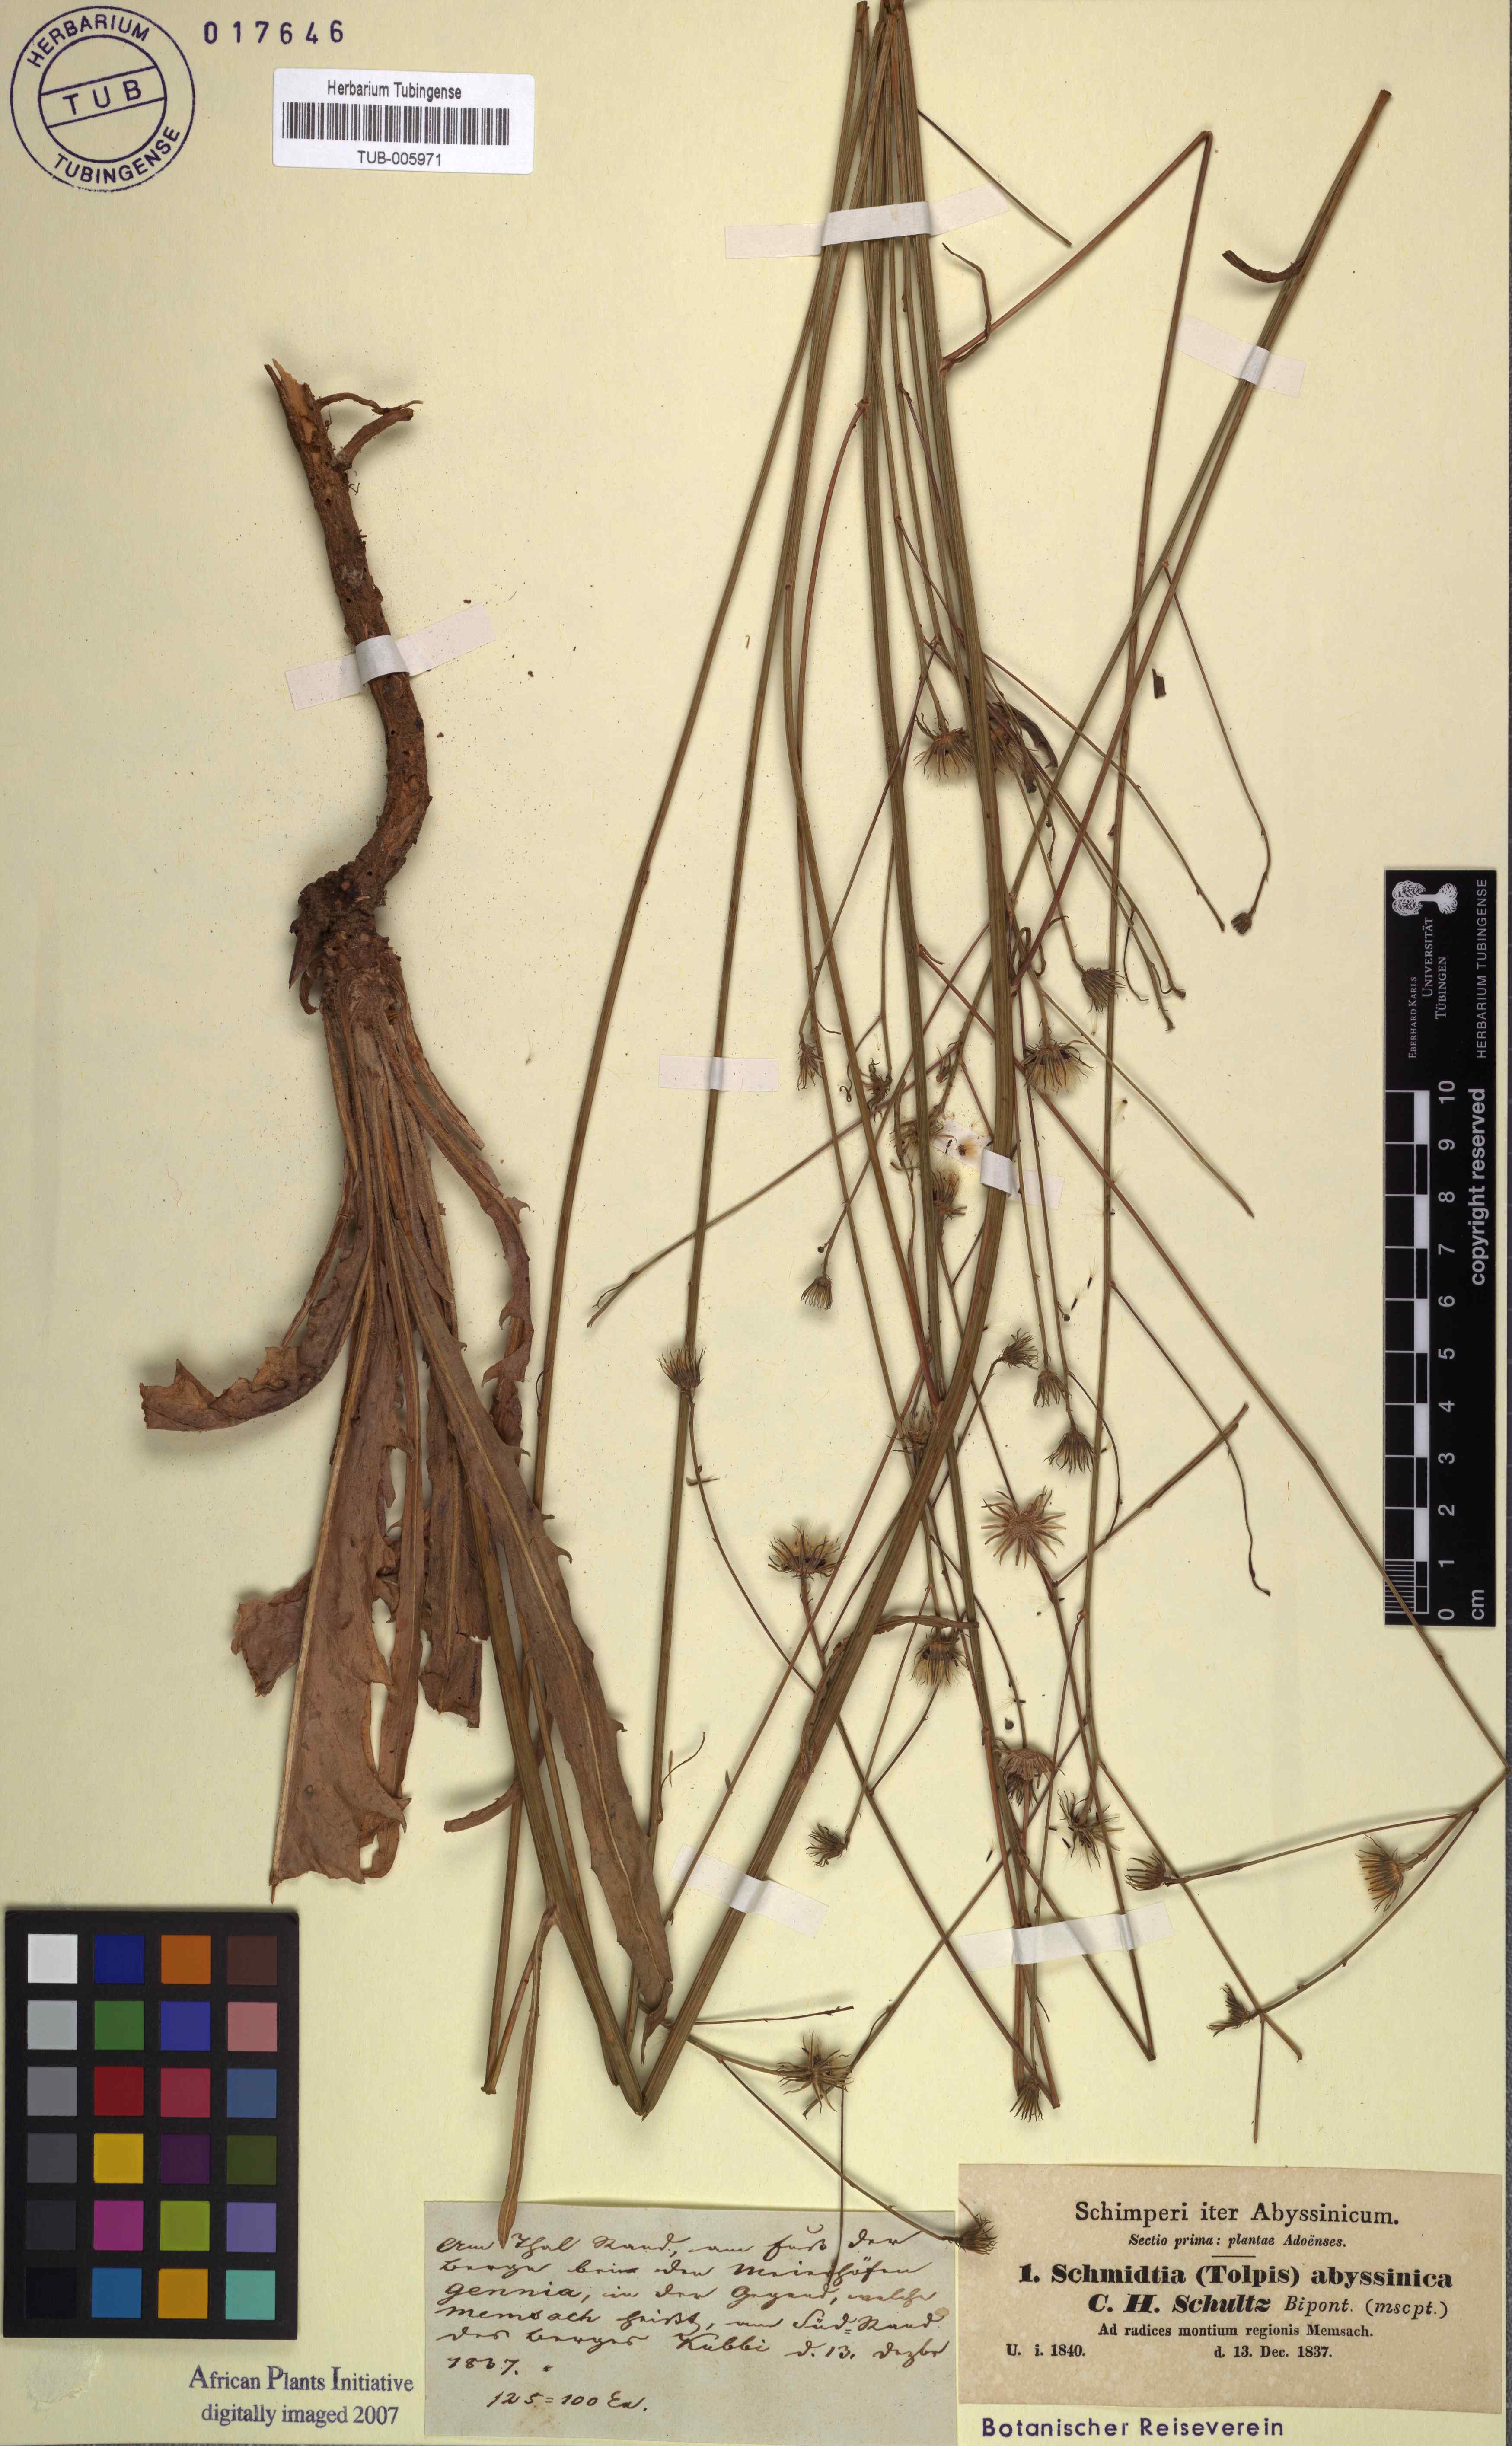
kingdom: Plantae
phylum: Tracheophyta
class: Magnoliopsida
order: Asterales
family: Asteraceae
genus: Tolpis
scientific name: Tolpis virgata
